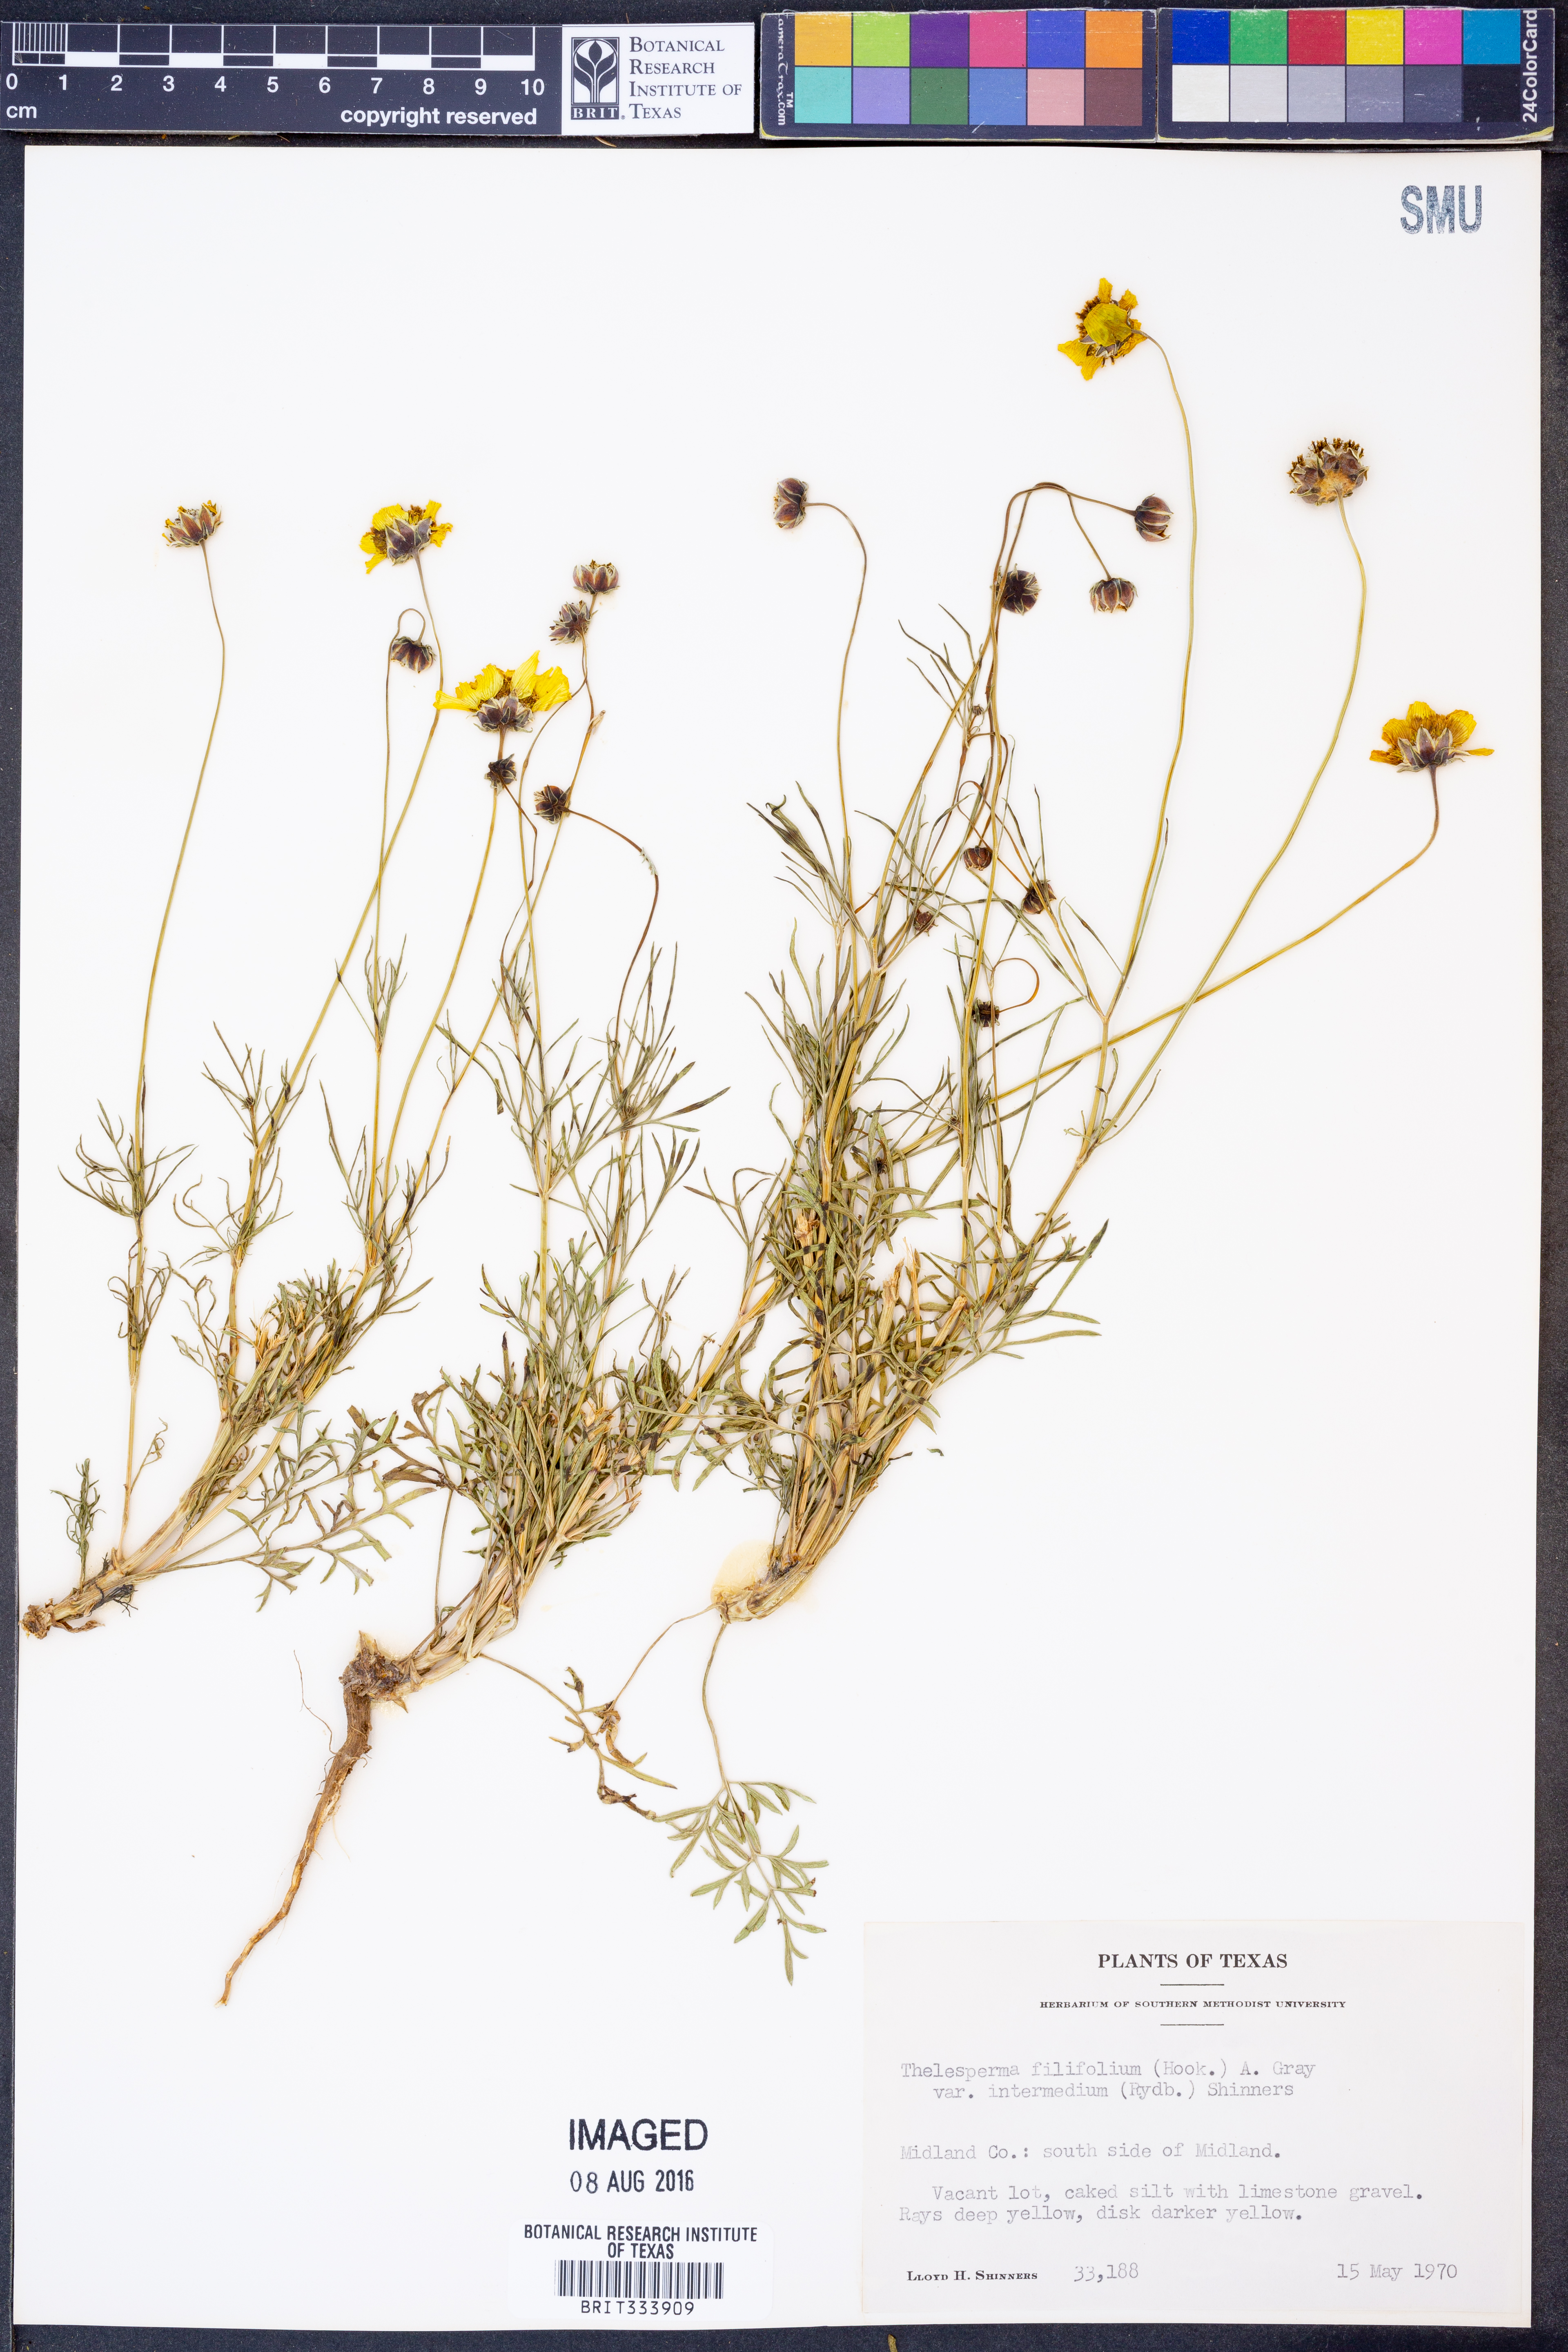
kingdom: Plantae
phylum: Tracheophyta
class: Magnoliopsida
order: Asterales
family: Asteraceae
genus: Thelesperma
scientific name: Thelesperma filifolium
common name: Stiff greenthread
